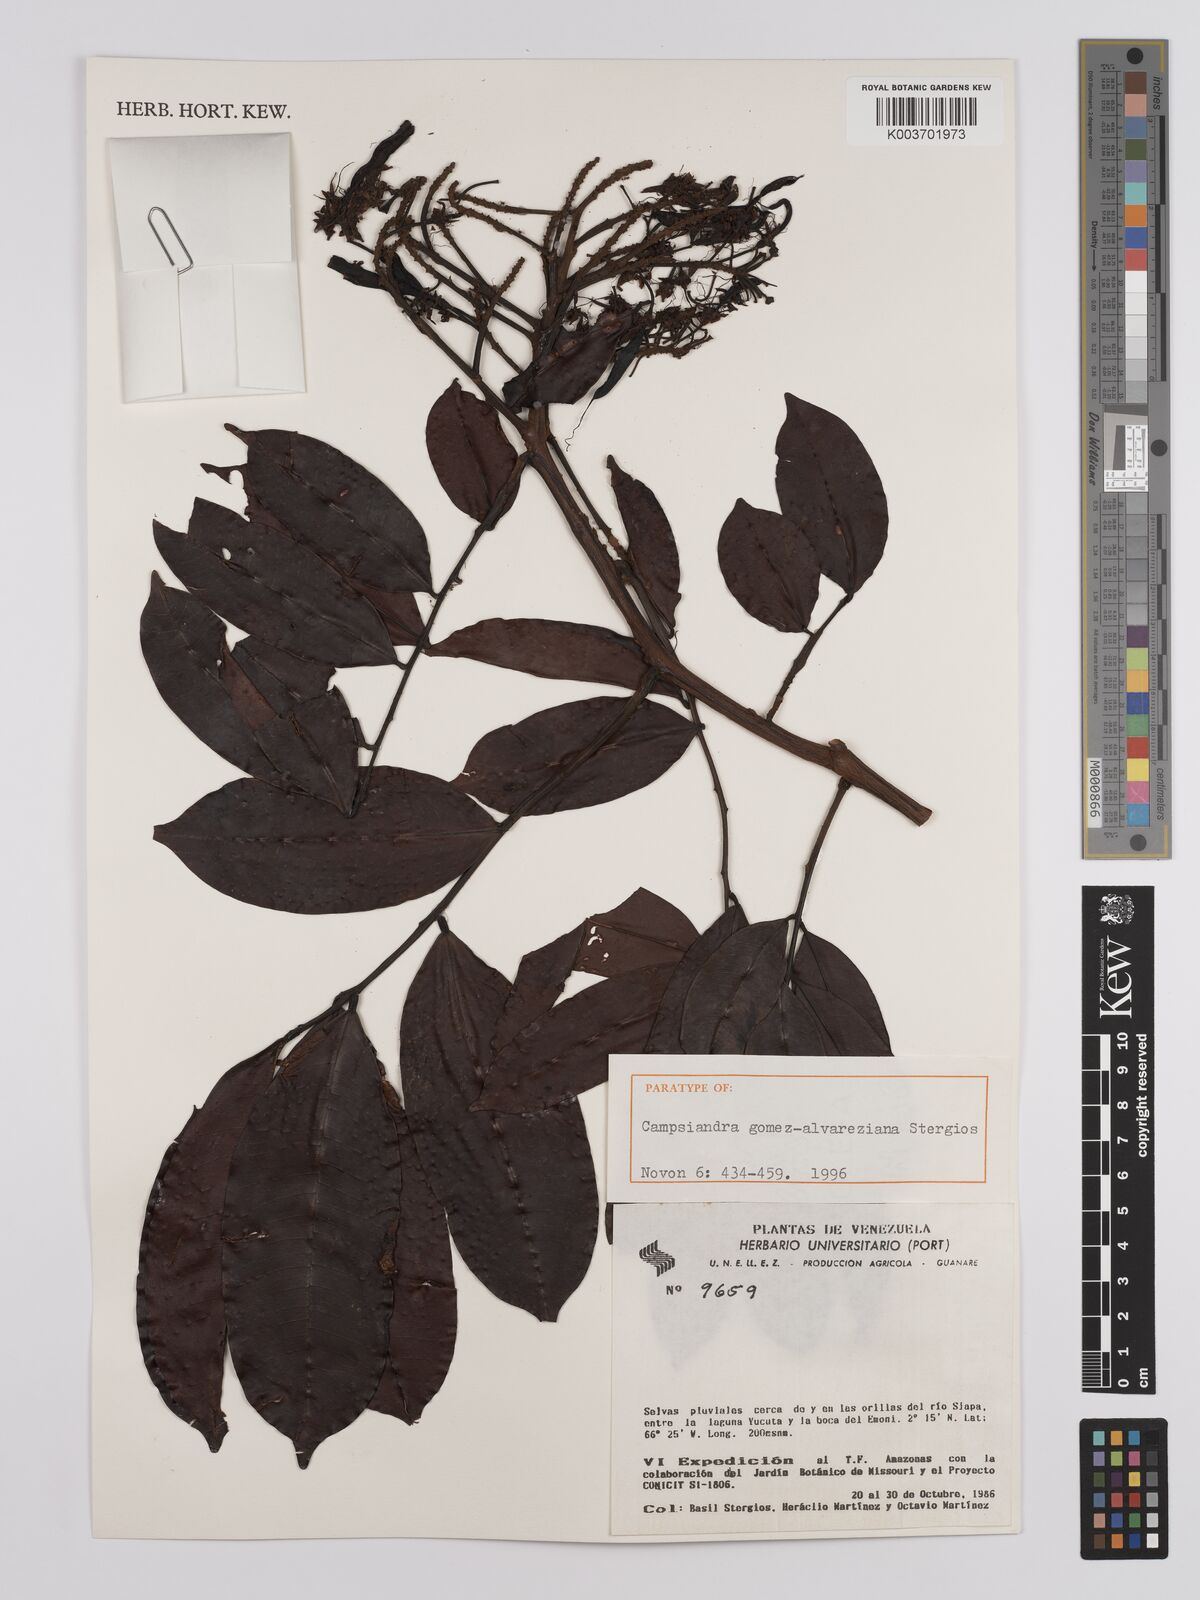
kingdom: Plantae
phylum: Tracheophyta
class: Magnoliopsida
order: Fabales
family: Fabaceae
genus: Campsiandra
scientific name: Campsiandra gomez-alvareziana
